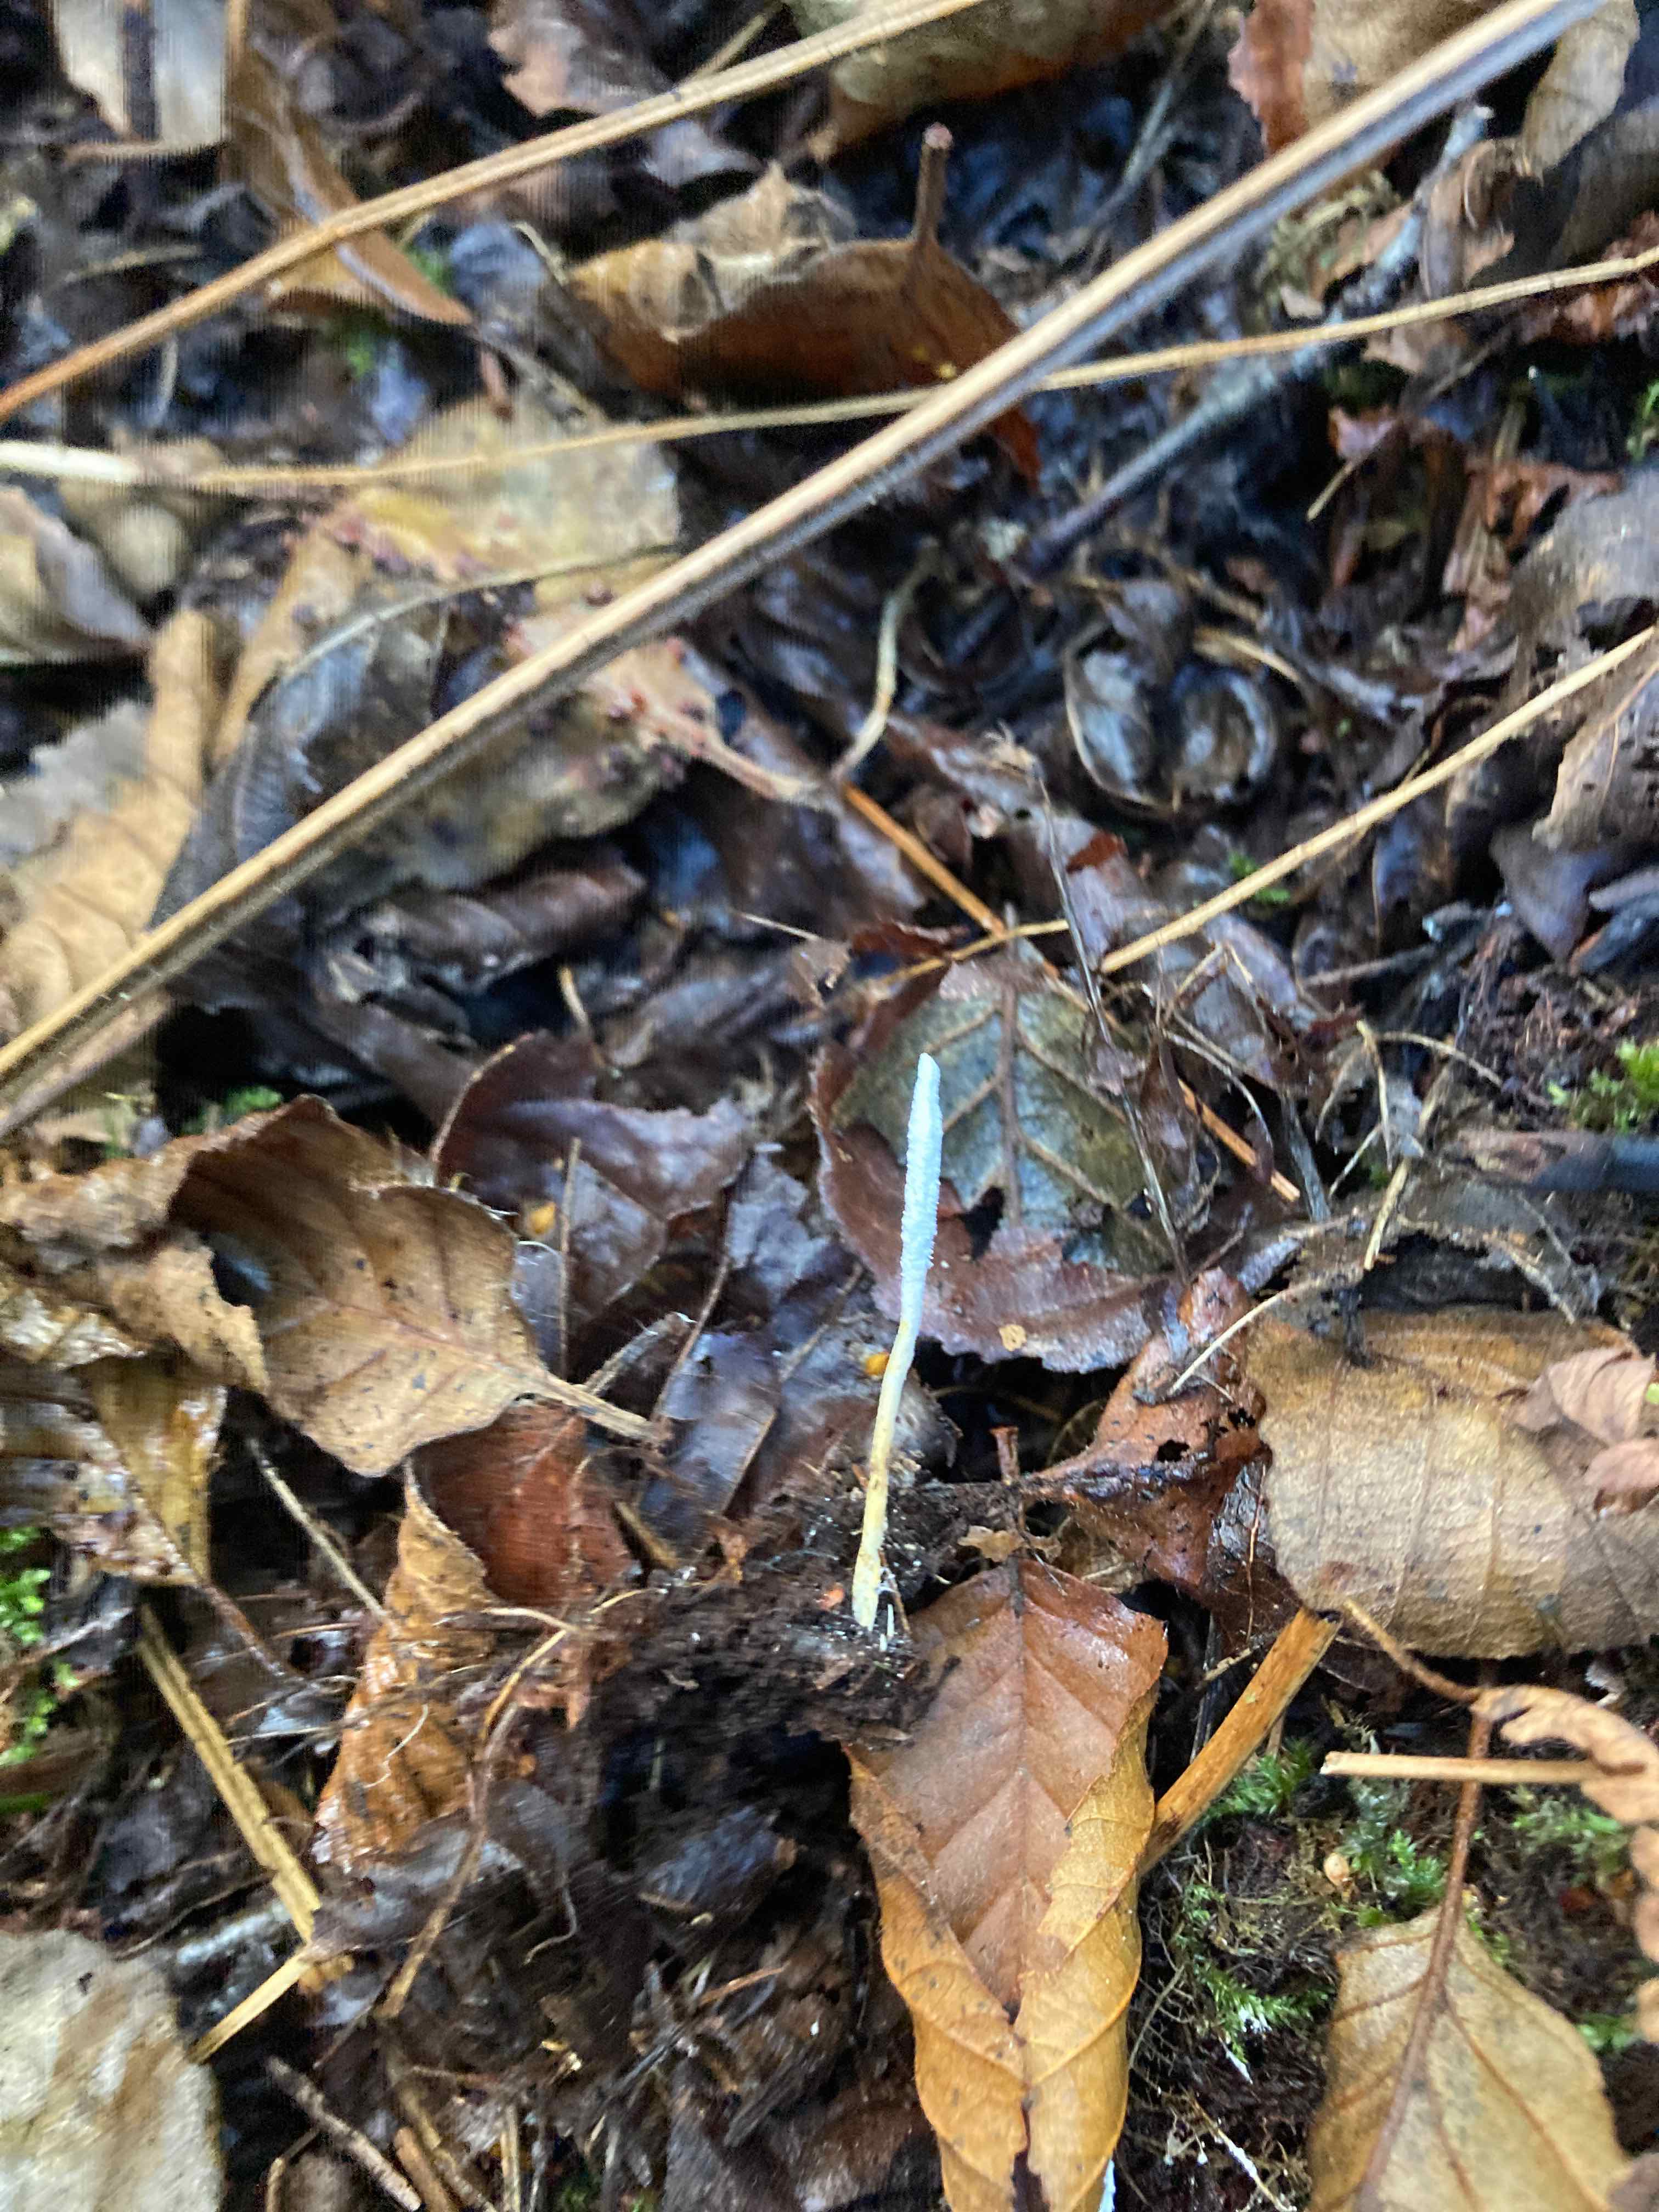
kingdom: Fungi
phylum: Ascomycota
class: Sordariomycetes
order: Hypocreales
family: Cordycipitaceae
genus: Cordyceps
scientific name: Cordyceps farinosa
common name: melet snyltekølle
